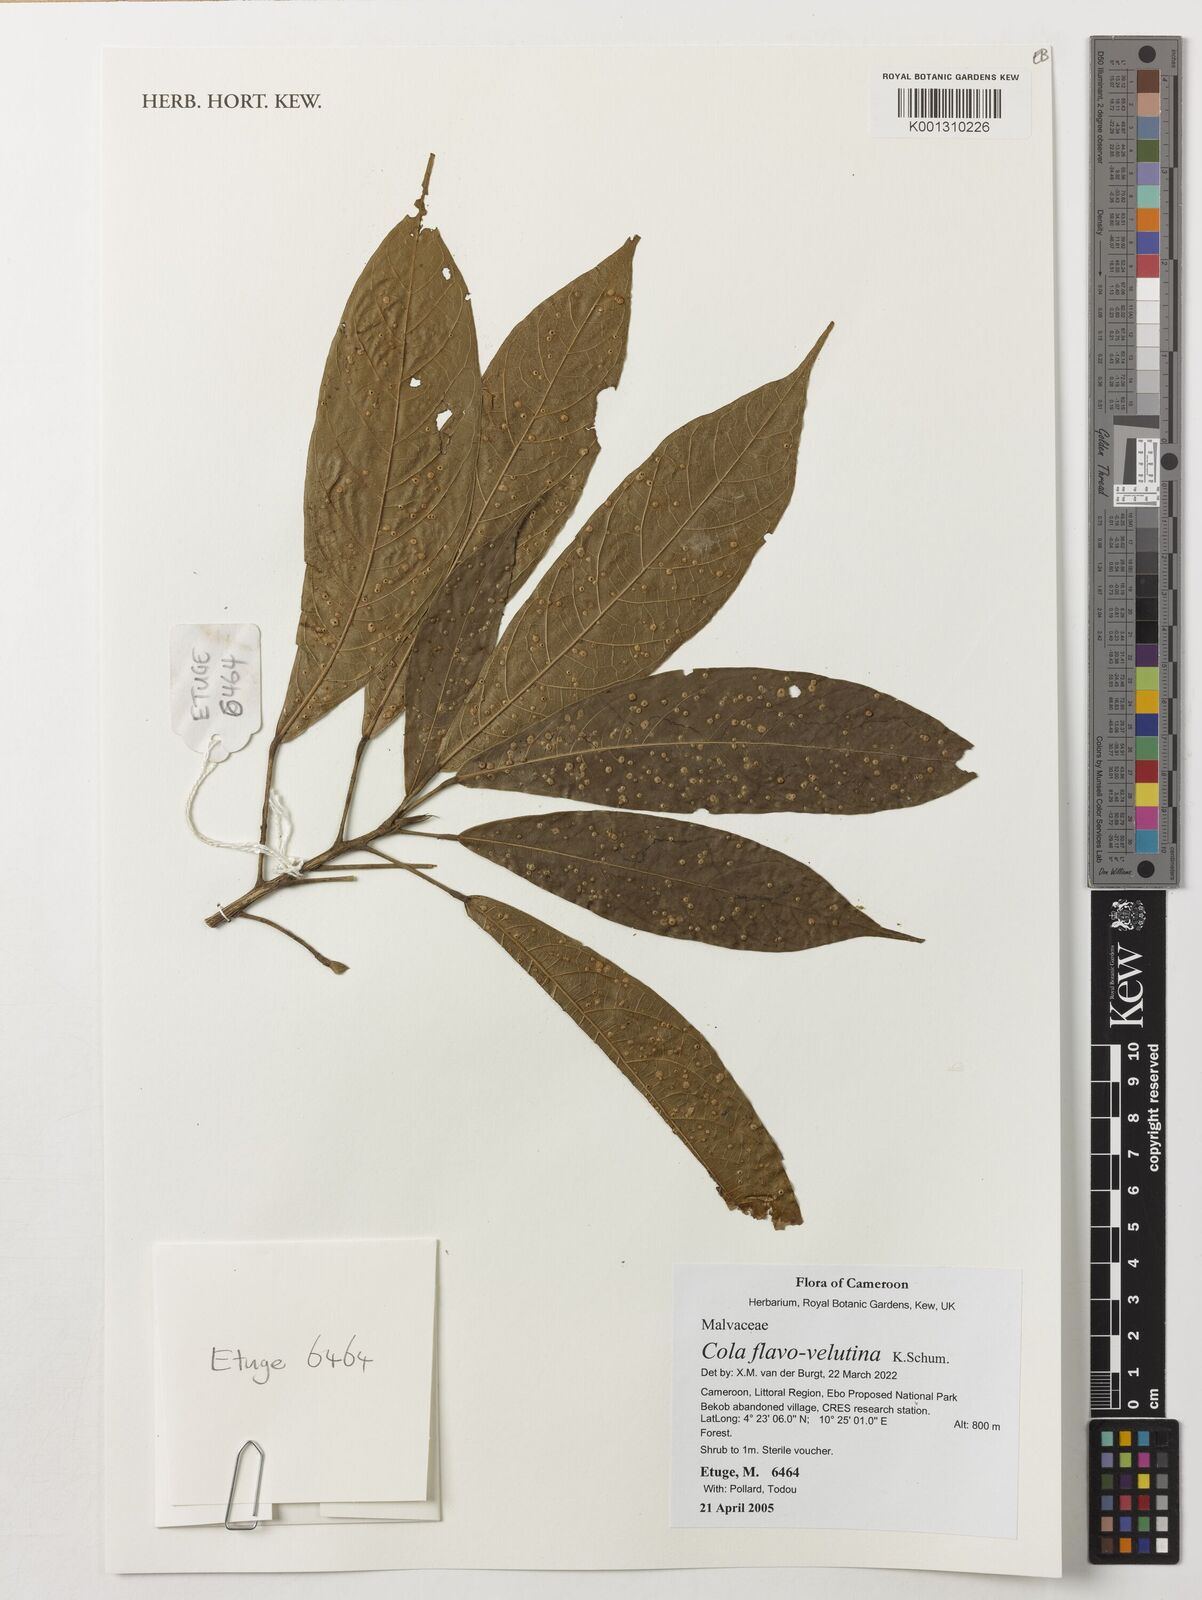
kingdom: Plantae
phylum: Tracheophyta
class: Magnoliopsida
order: Malvales
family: Malvaceae
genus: Cola
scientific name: Cola flavovelutina
